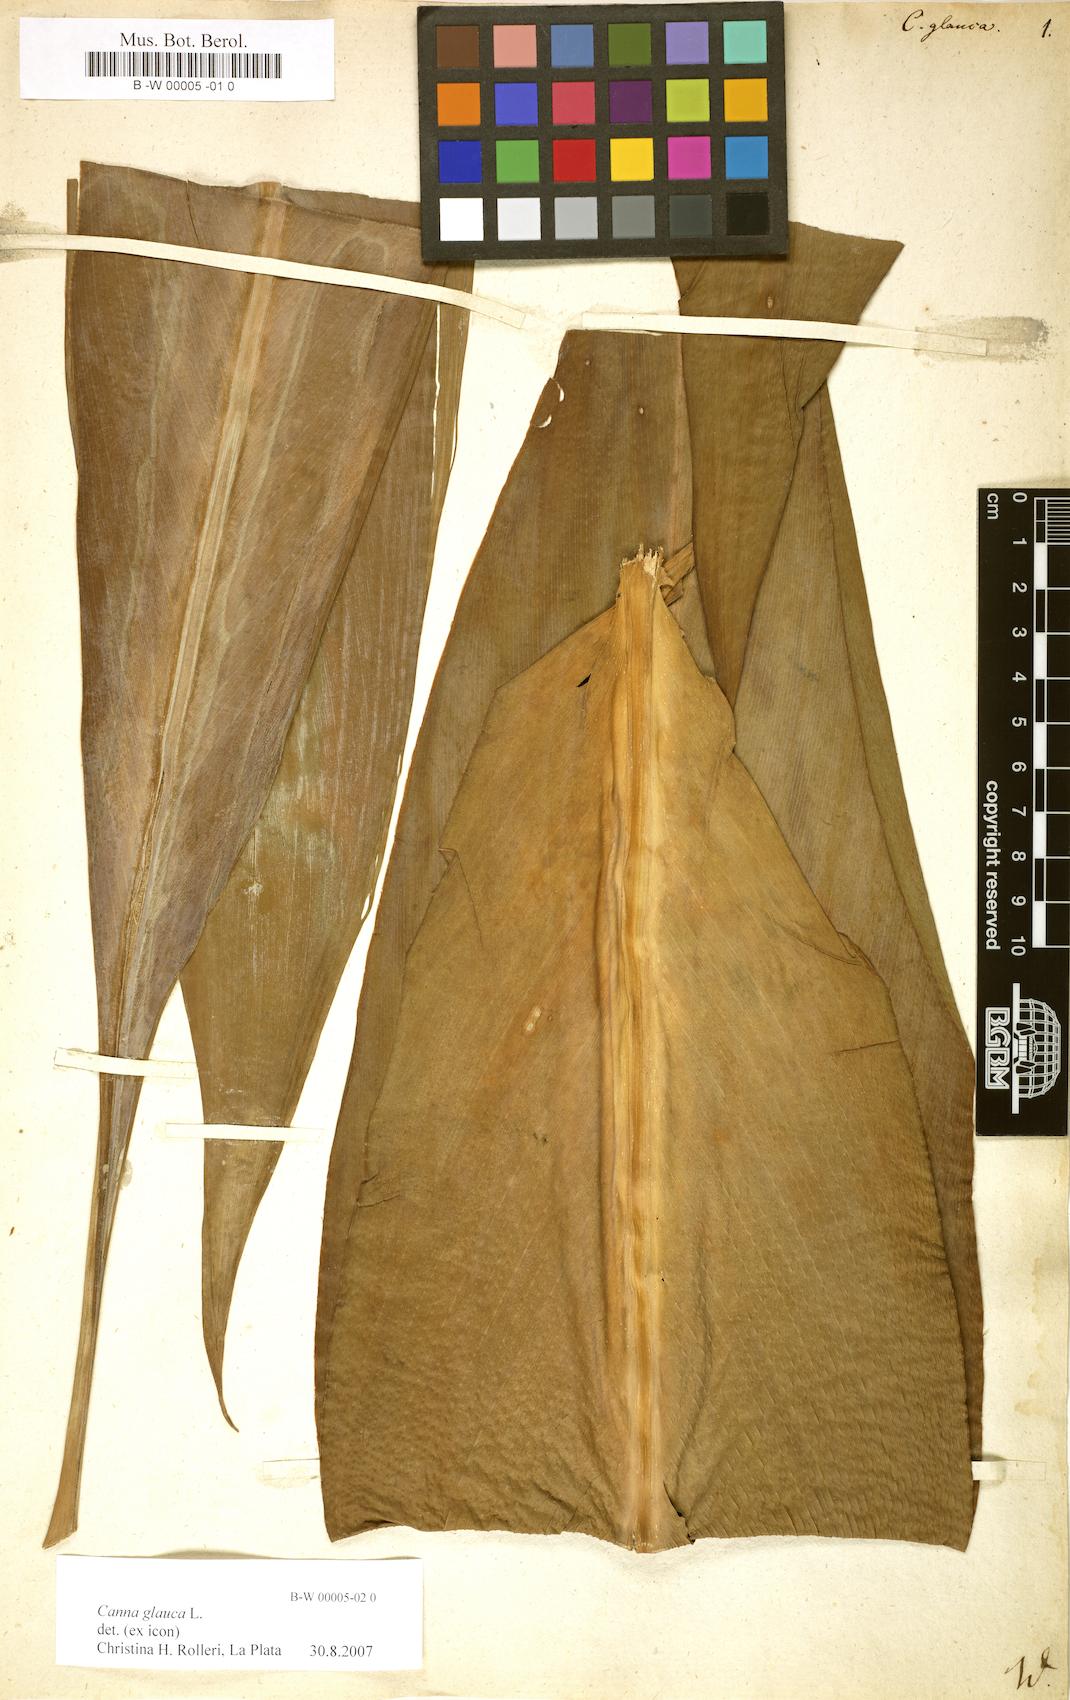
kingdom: Plantae
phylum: Tracheophyta
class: Liliopsida
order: Zingiberales
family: Cannaceae
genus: Canna
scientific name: Canna glauca
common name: Louisiana canna
